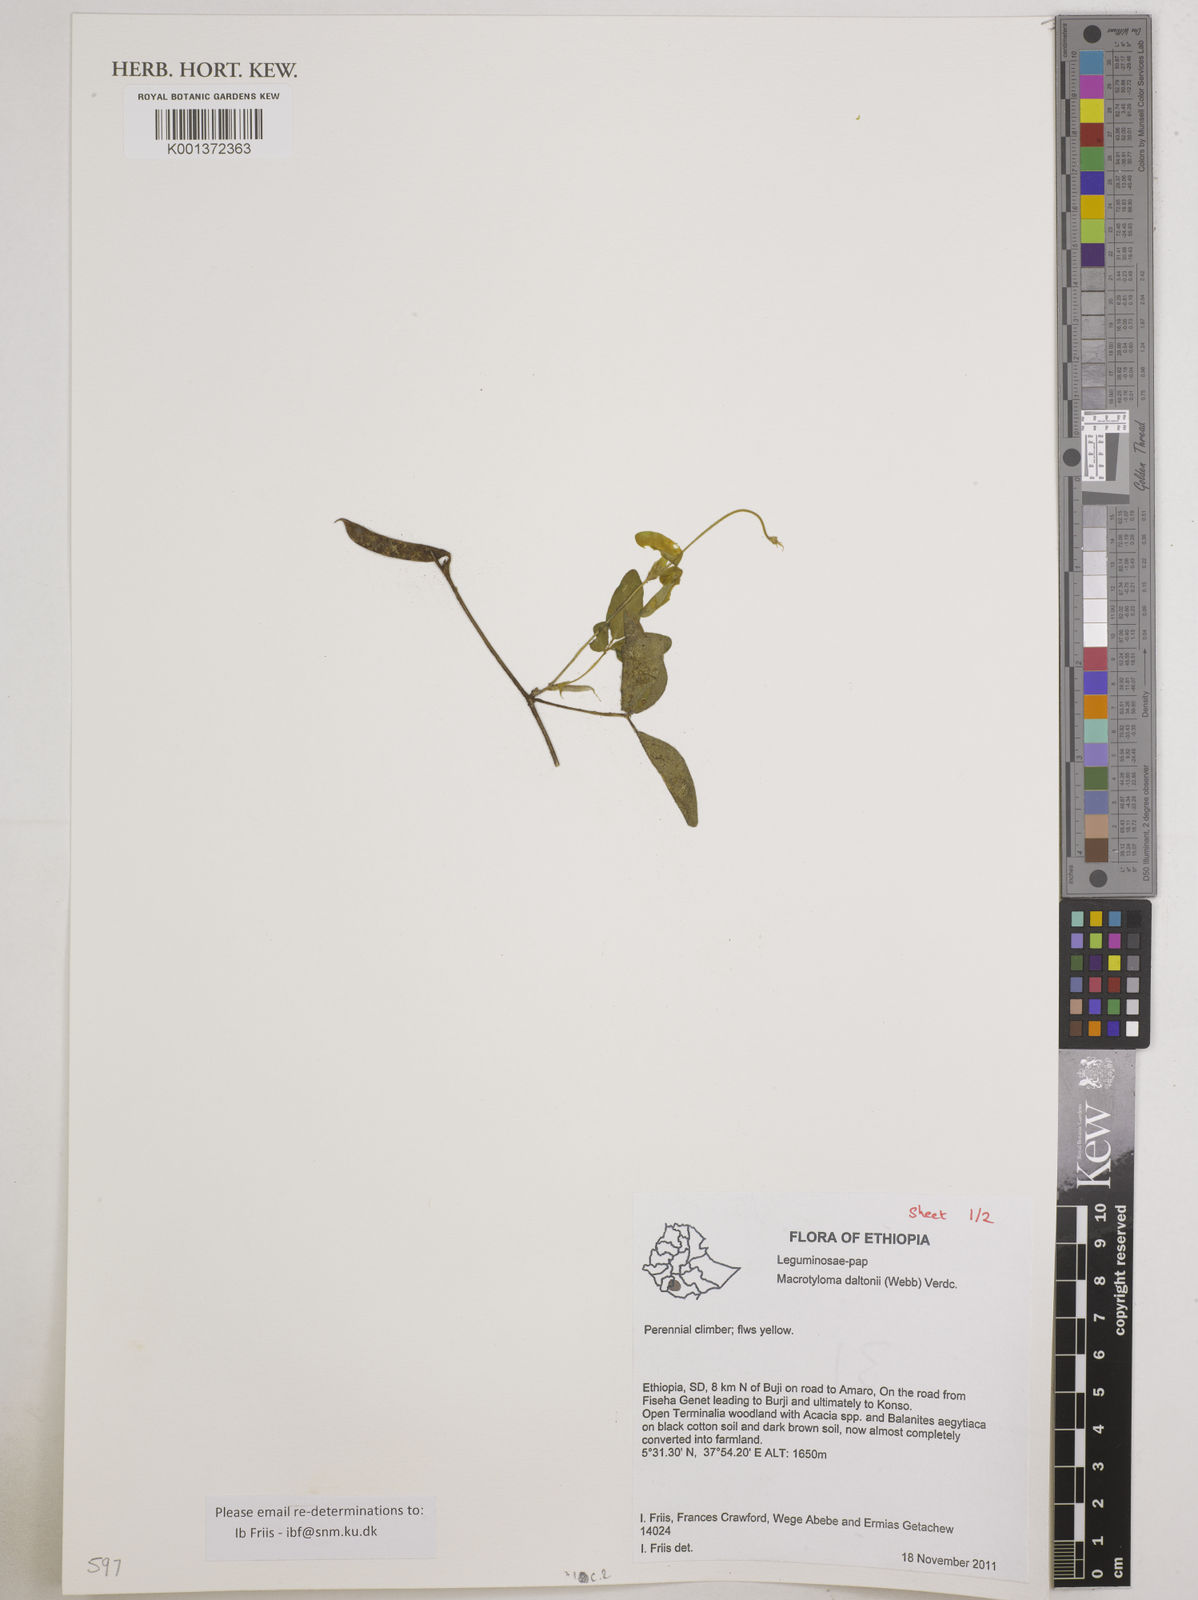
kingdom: Plantae
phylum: Tracheophyta
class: Magnoliopsida
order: Fabales
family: Fabaceae
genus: Macrotyloma
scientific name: Macrotyloma daltonii
